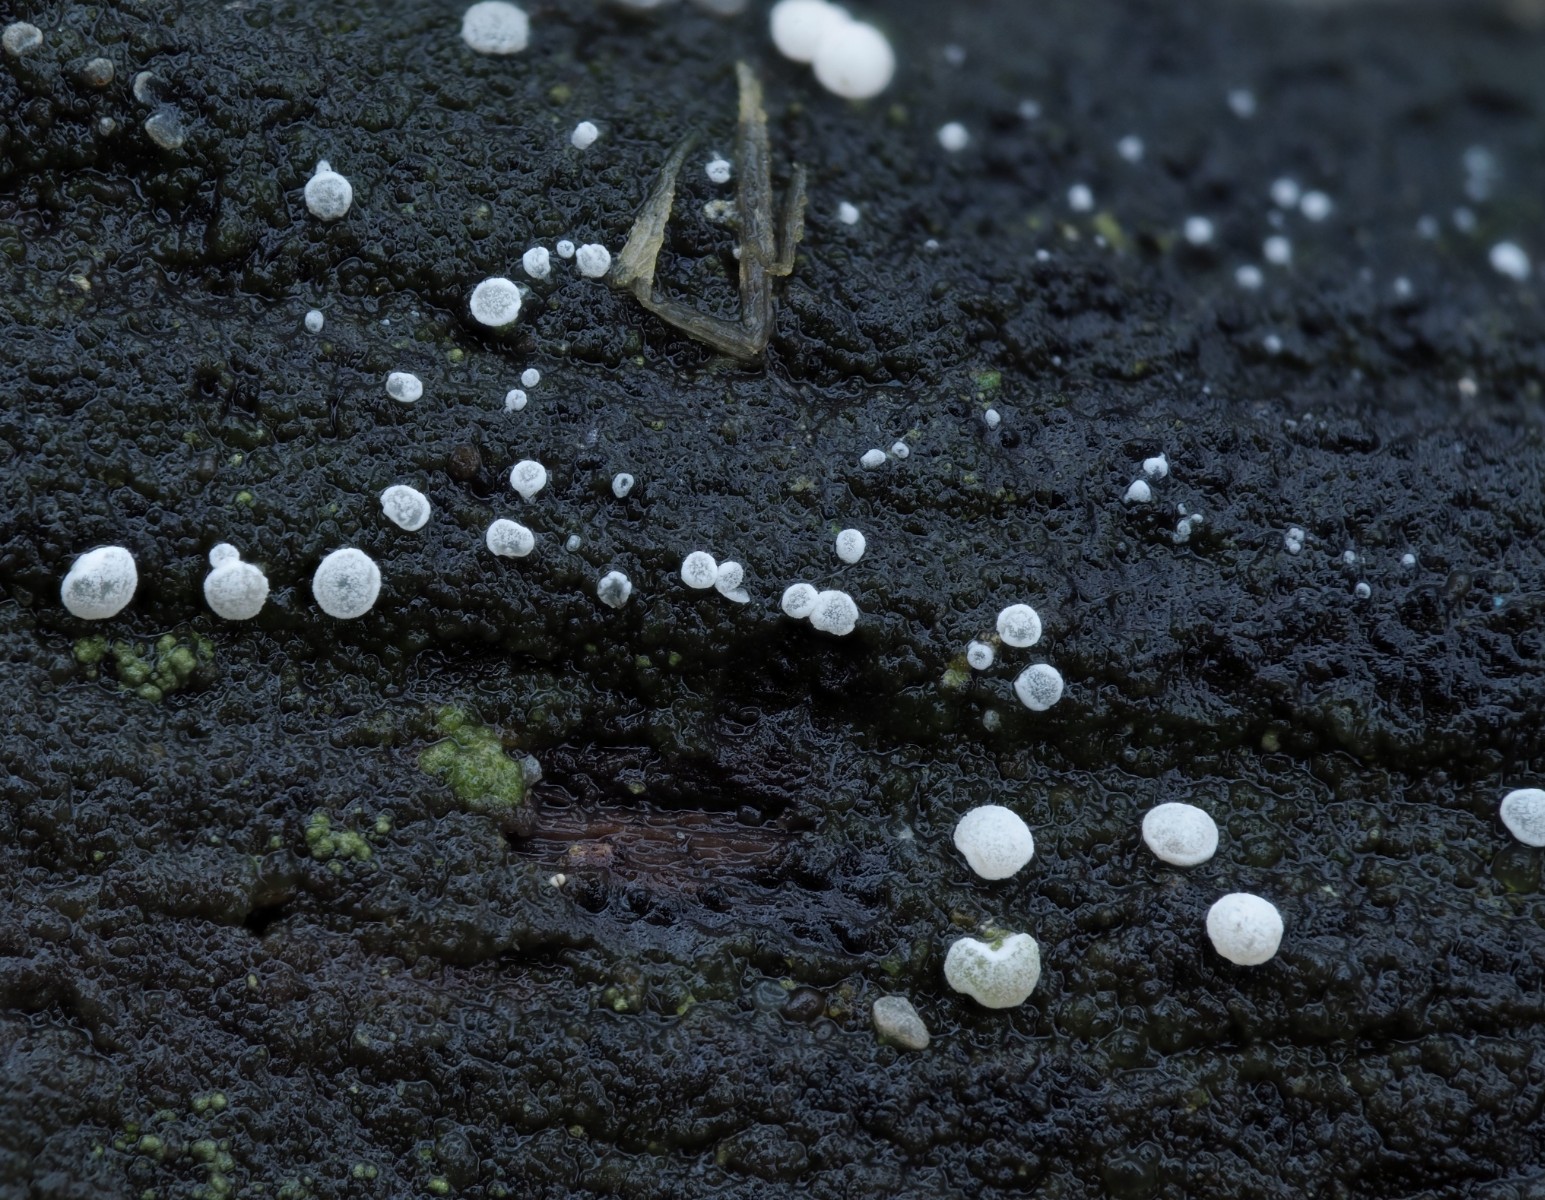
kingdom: Fungi
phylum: Ascomycota
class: Leotiomycetes
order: Helotiales
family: Hyaloscyphaceae
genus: Polydesmia
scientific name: Polydesmia pruinosa
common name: dunskive
